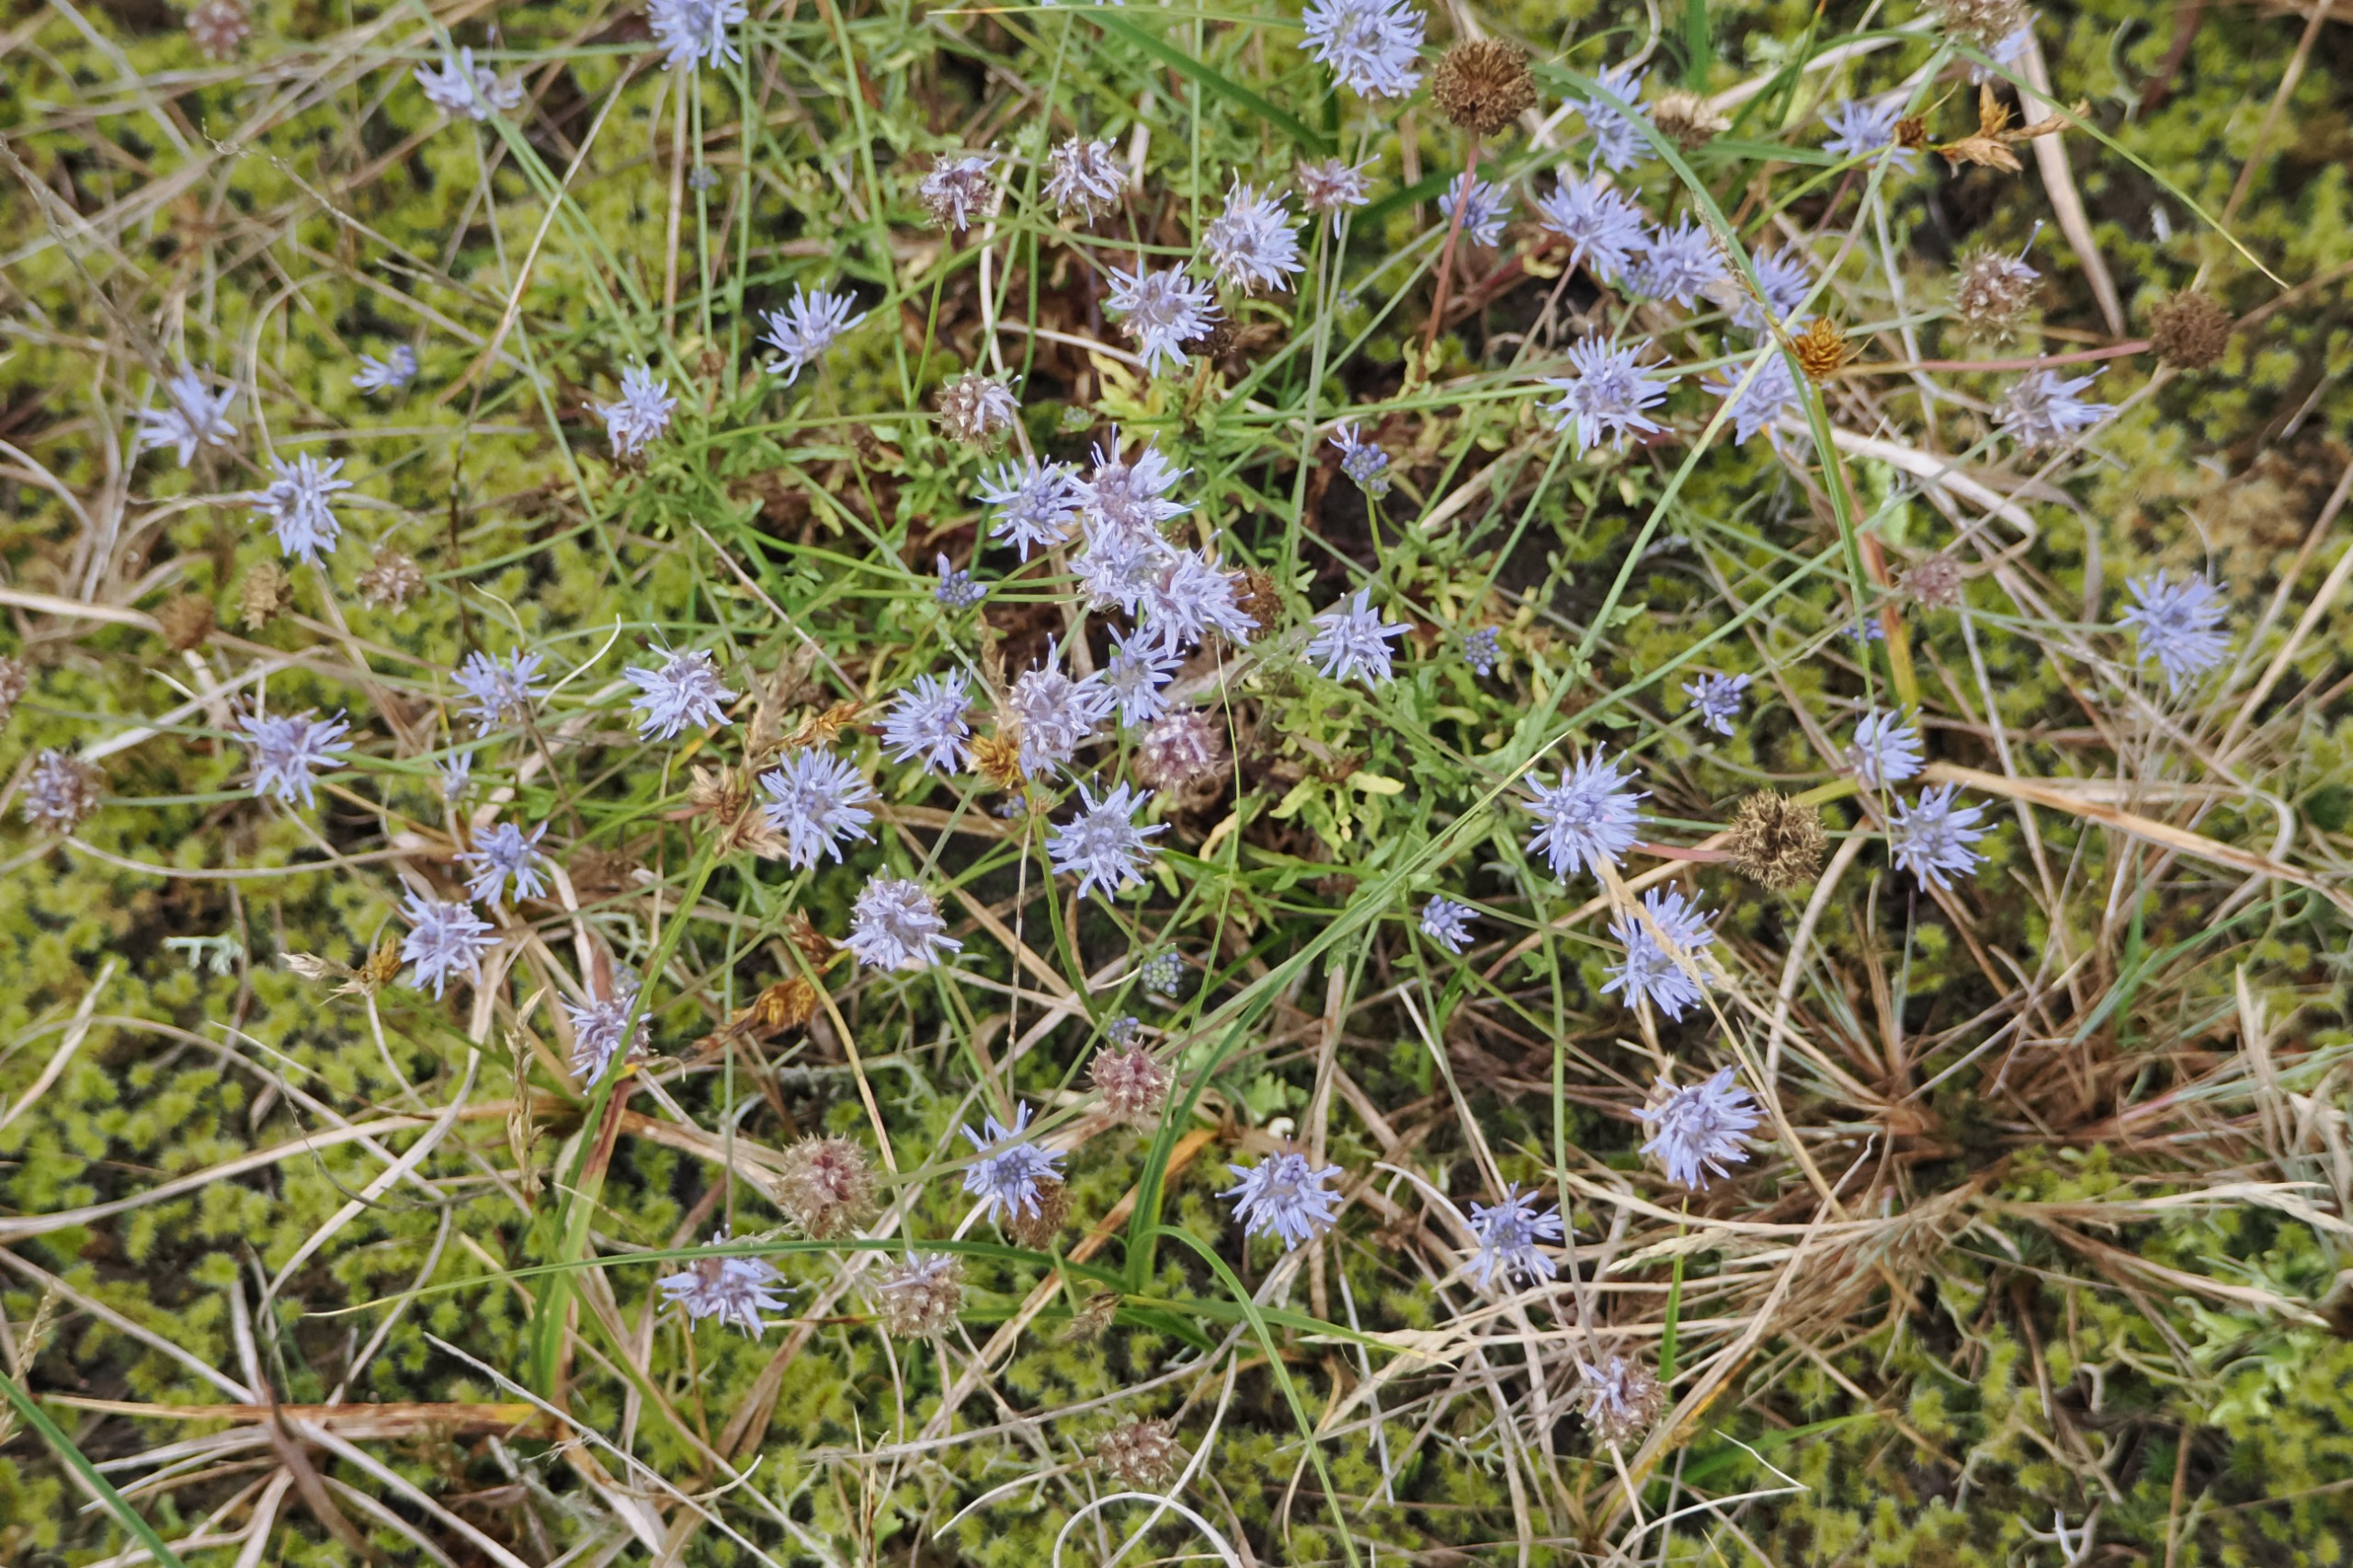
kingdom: Plantae
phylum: Tracheophyta
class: Magnoliopsida
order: Asterales
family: Campanulaceae
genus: Jasione
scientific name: Jasione montana
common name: Blåmunke
